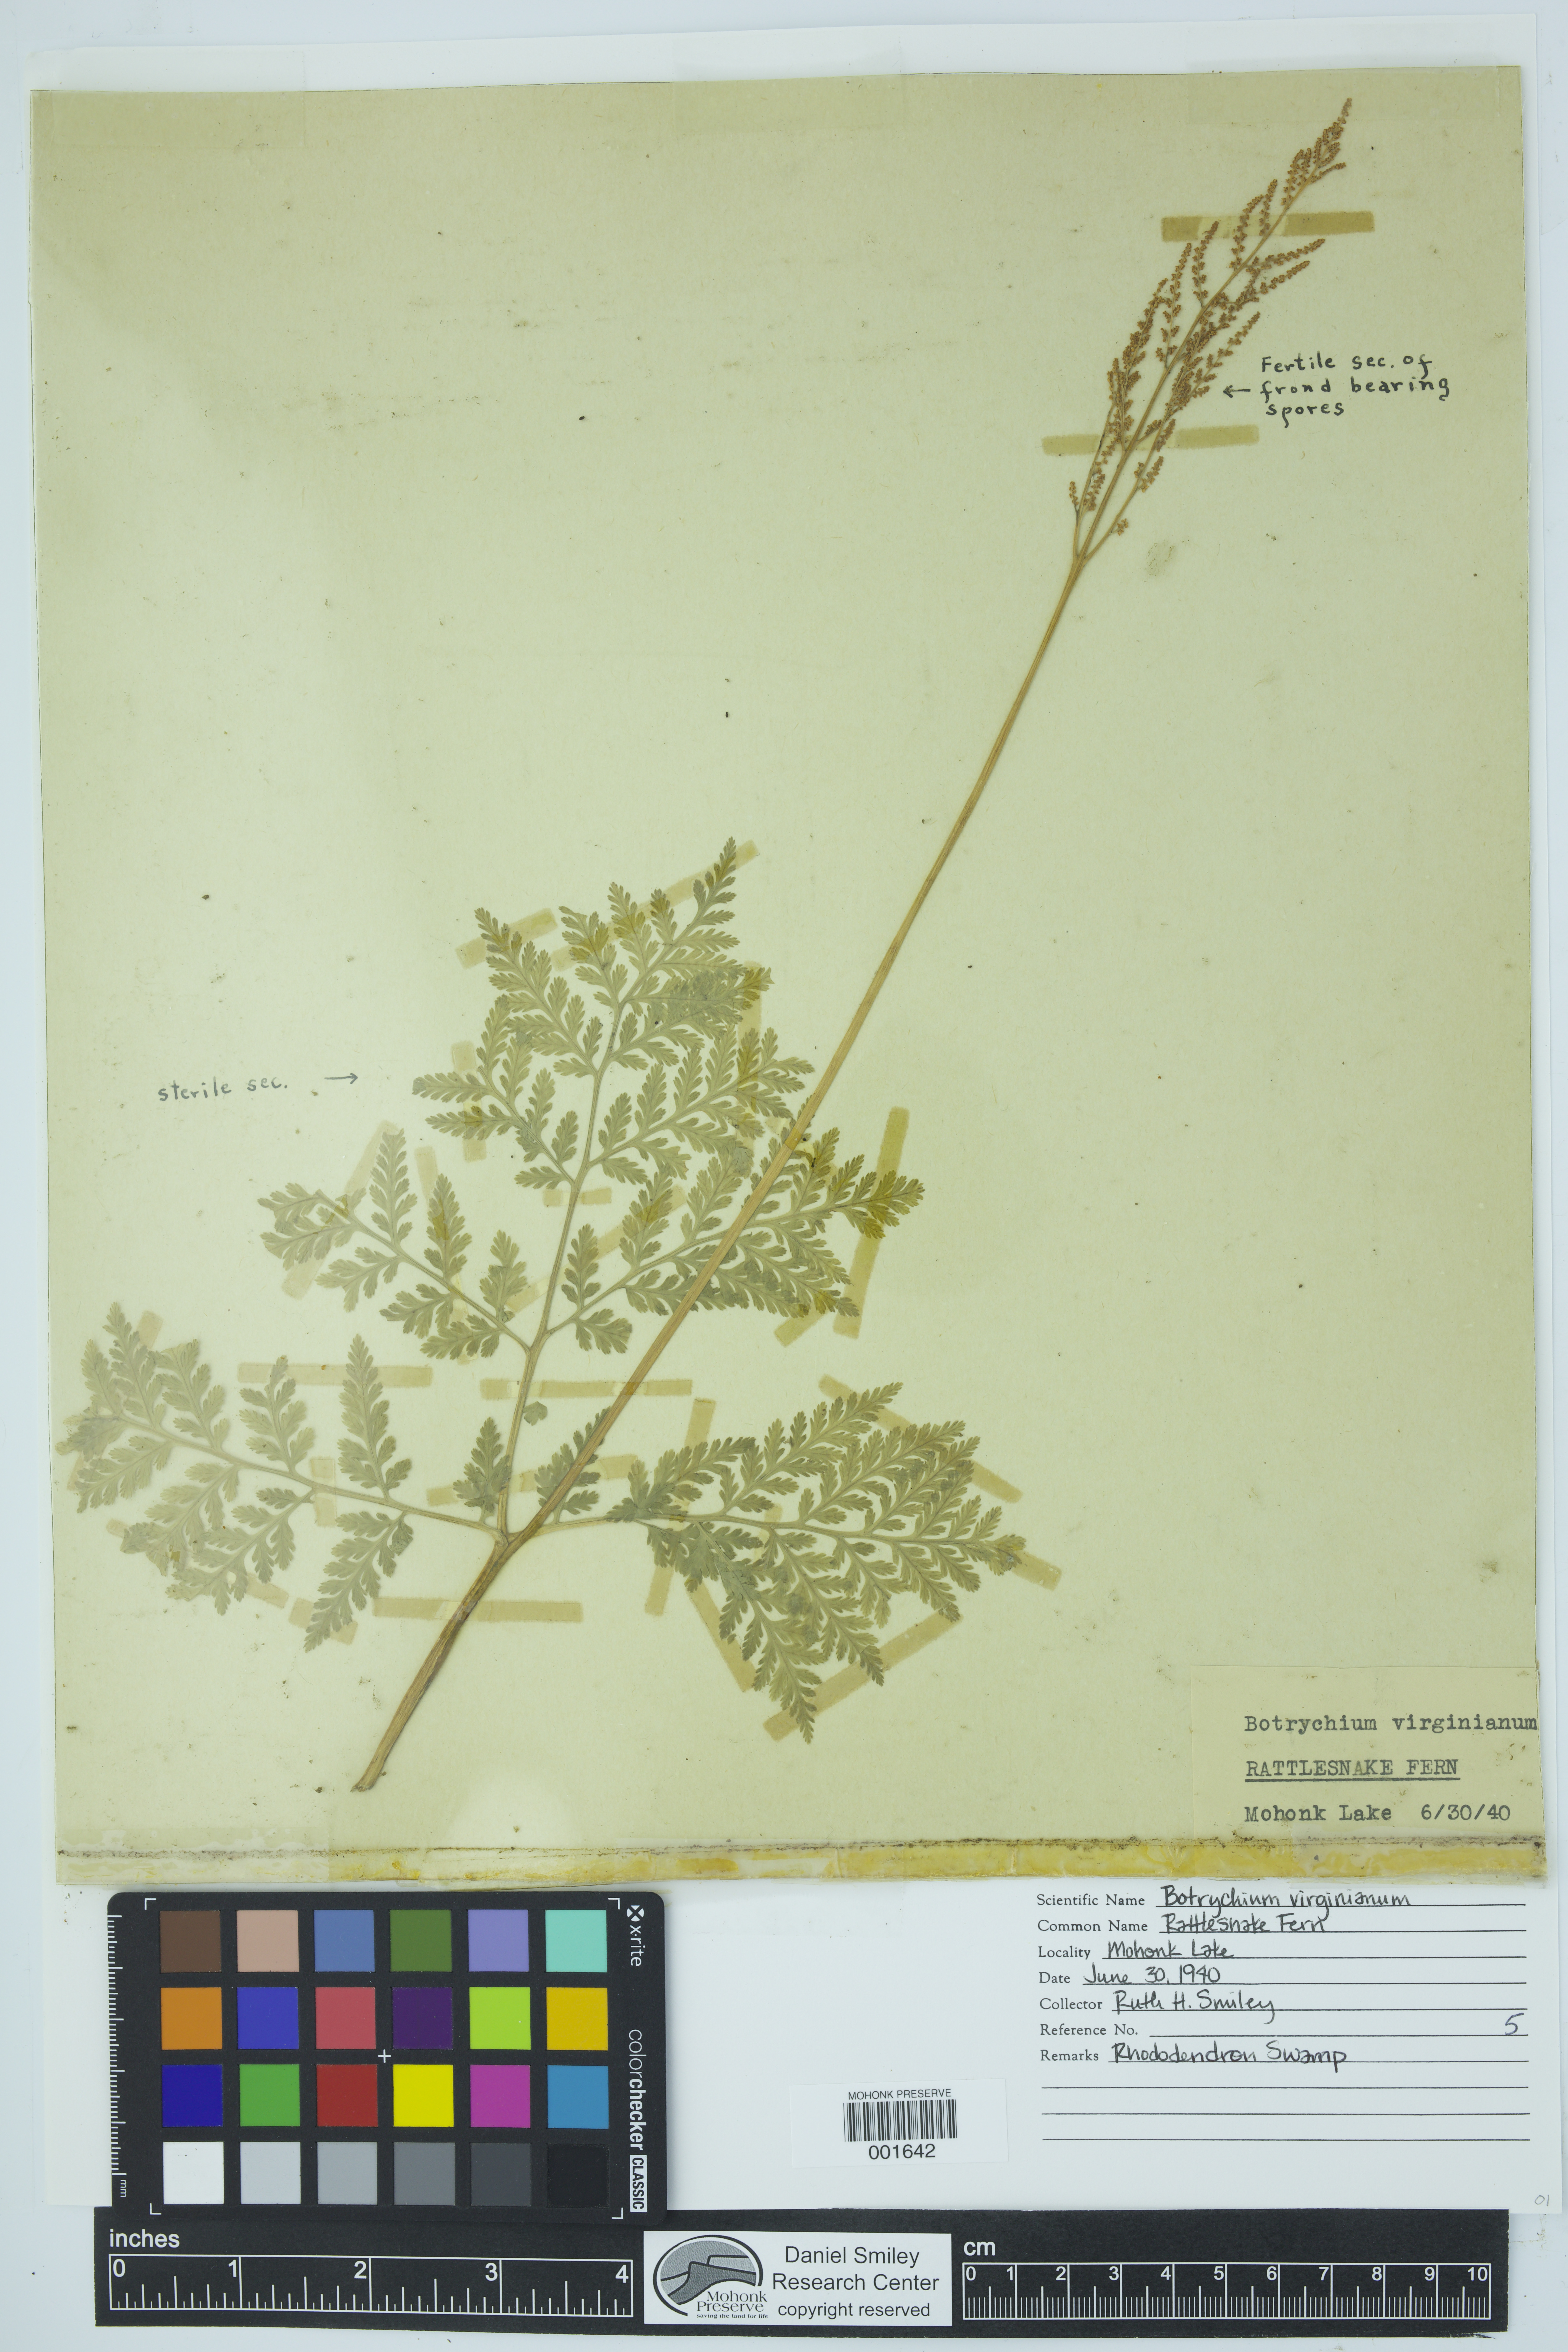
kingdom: Plantae
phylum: Tracheophyta
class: Polypodiopsida
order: Ophioglossales
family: Ophioglossaceae
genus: Botrypus
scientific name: Botrypus virginianus
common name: Common grapefern
